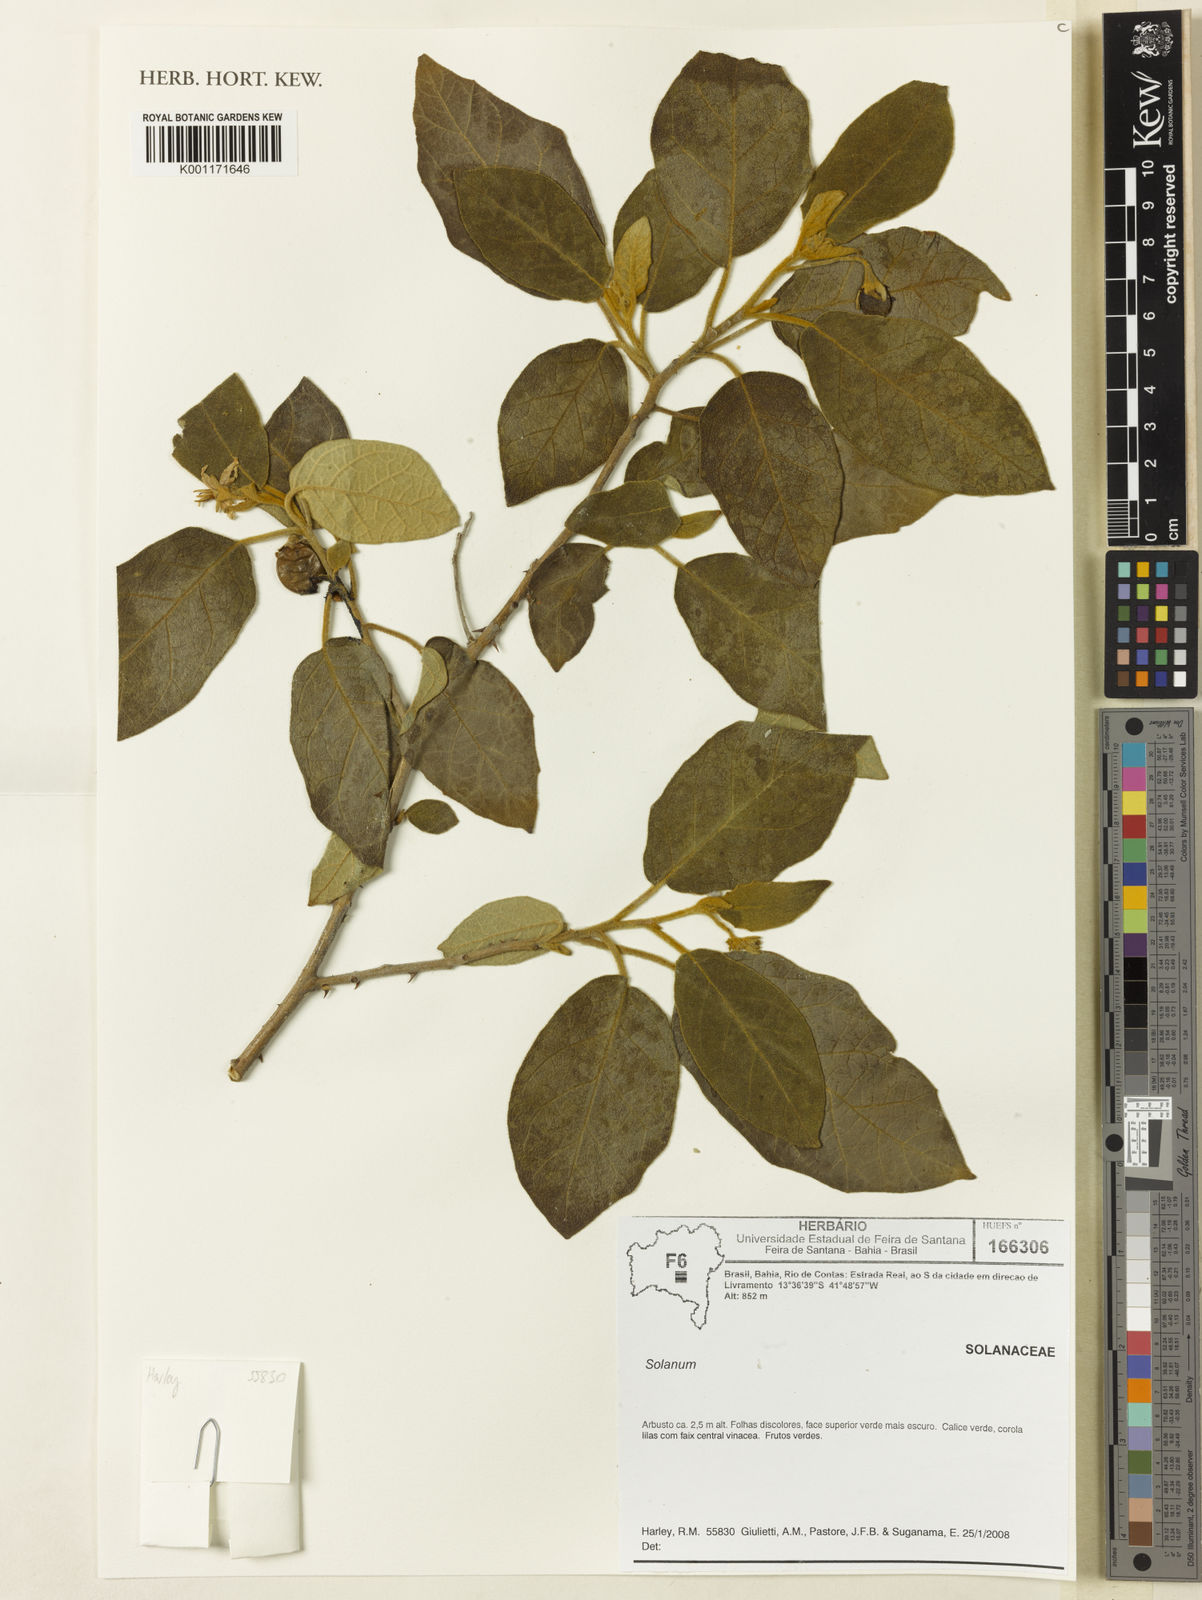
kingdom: Plantae
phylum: Tracheophyta
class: Magnoliopsida
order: Solanales
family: Solanaceae
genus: Solanum
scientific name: Solanum
